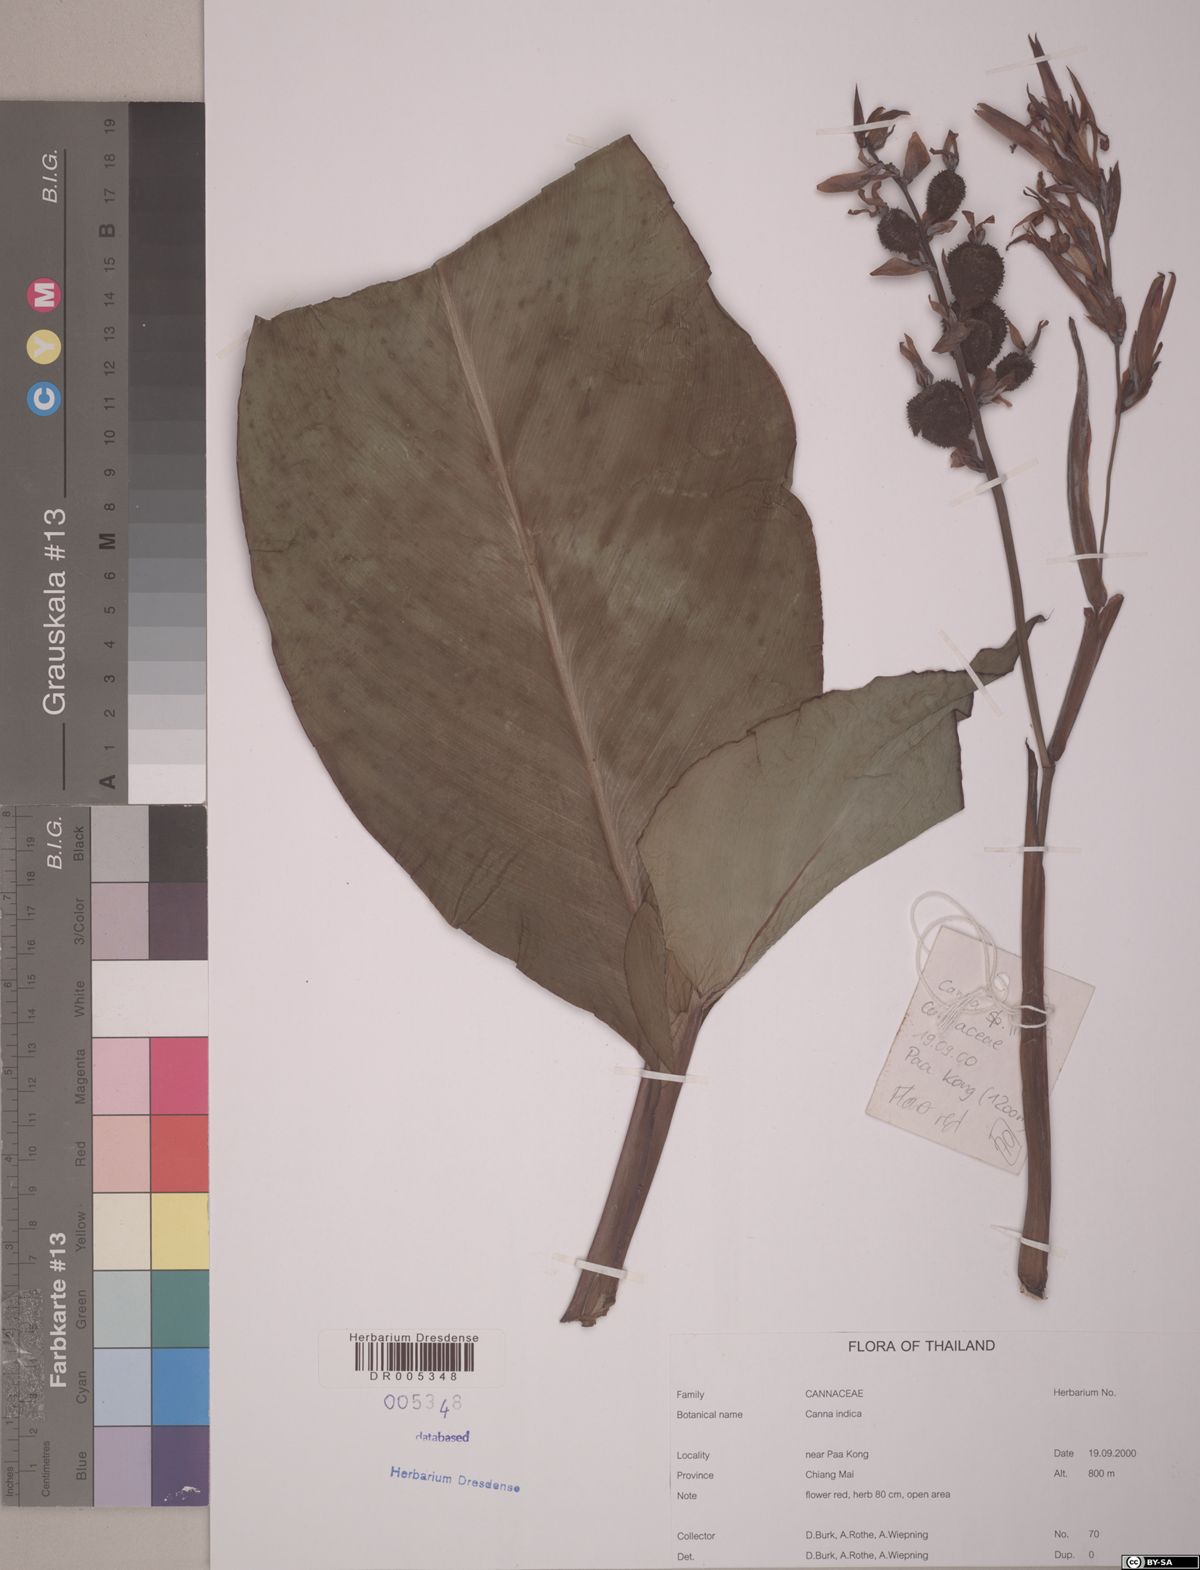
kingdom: Plantae
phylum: Tracheophyta
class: Liliopsida
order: Zingiberales
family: Cannaceae
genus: Canna
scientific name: Canna indica
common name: Indian shot
